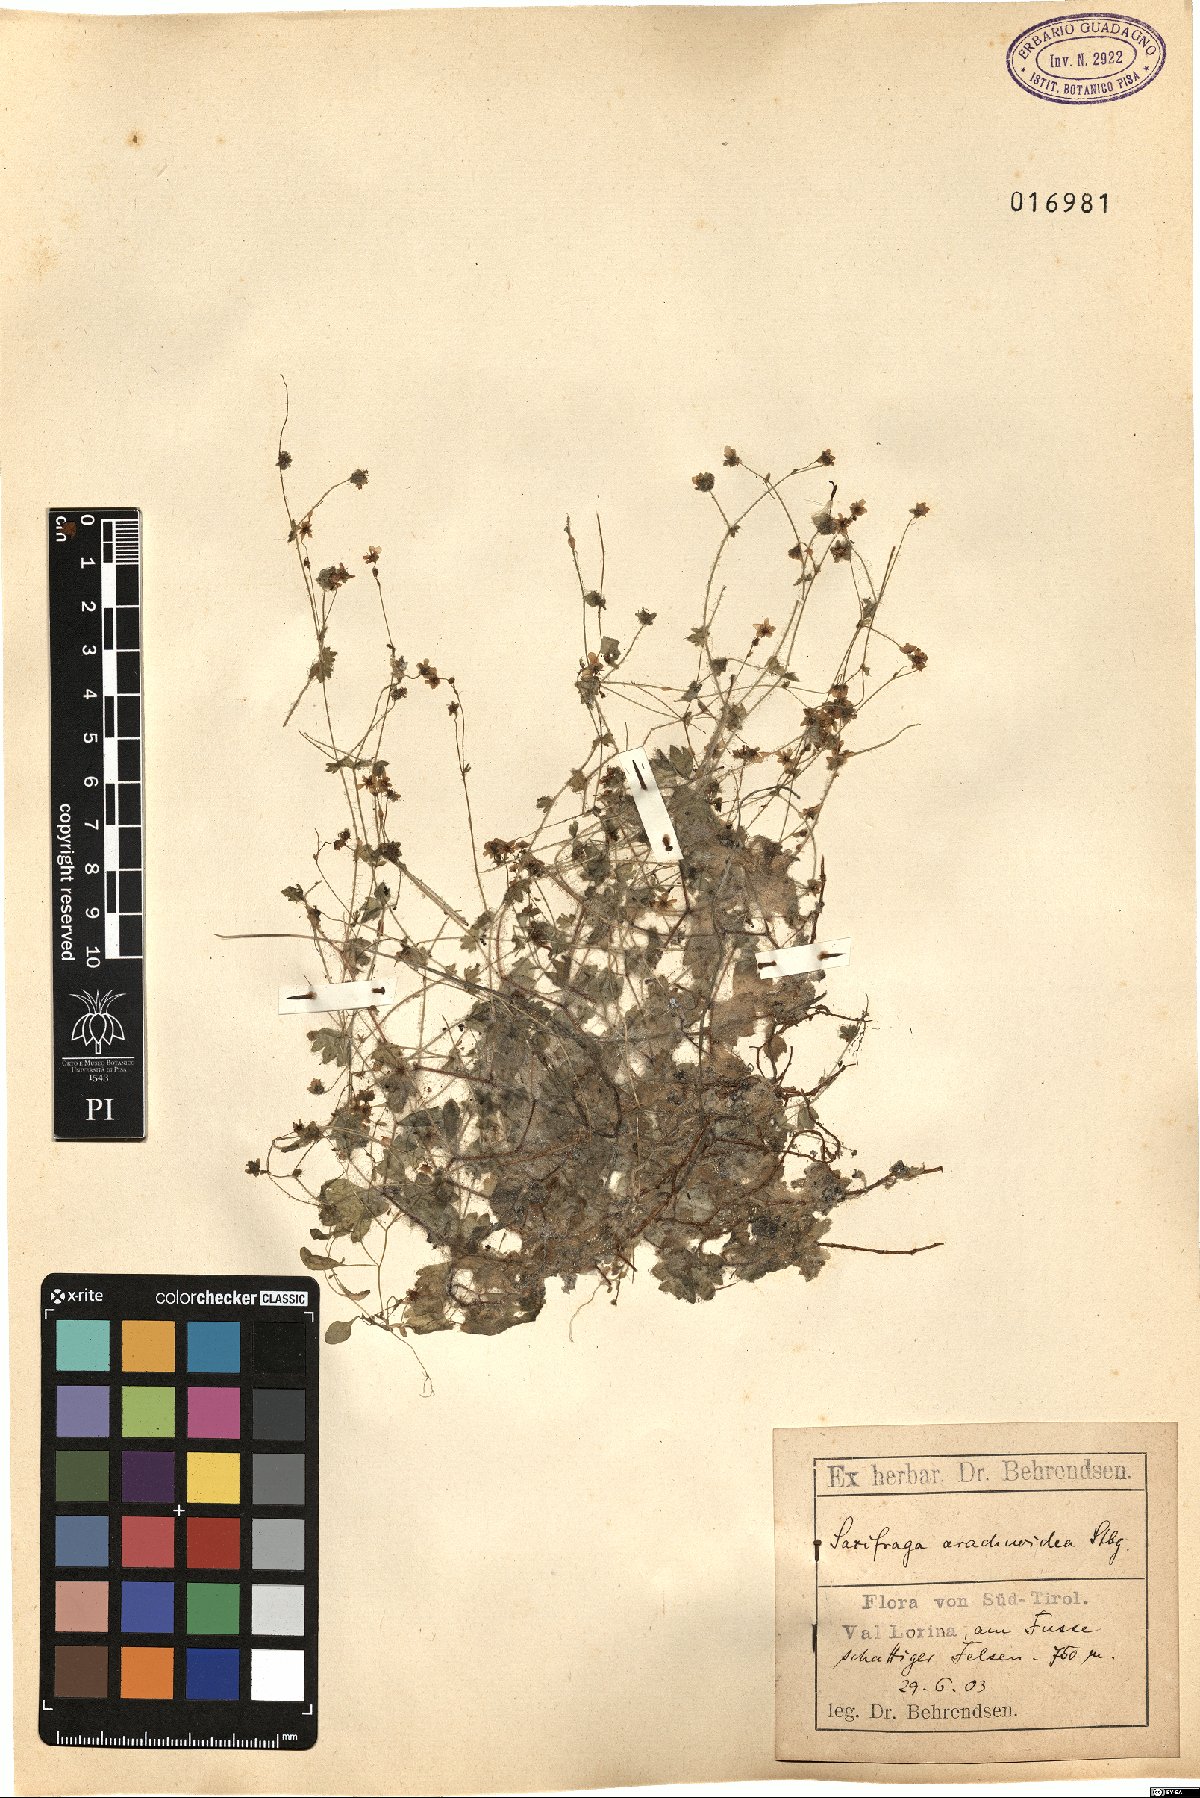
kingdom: Plantae
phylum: Tracheophyta
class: Magnoliopsida
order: Saxifragales
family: Saxifragaceae
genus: Saxifraga
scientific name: Saxifraga arachnoidea
